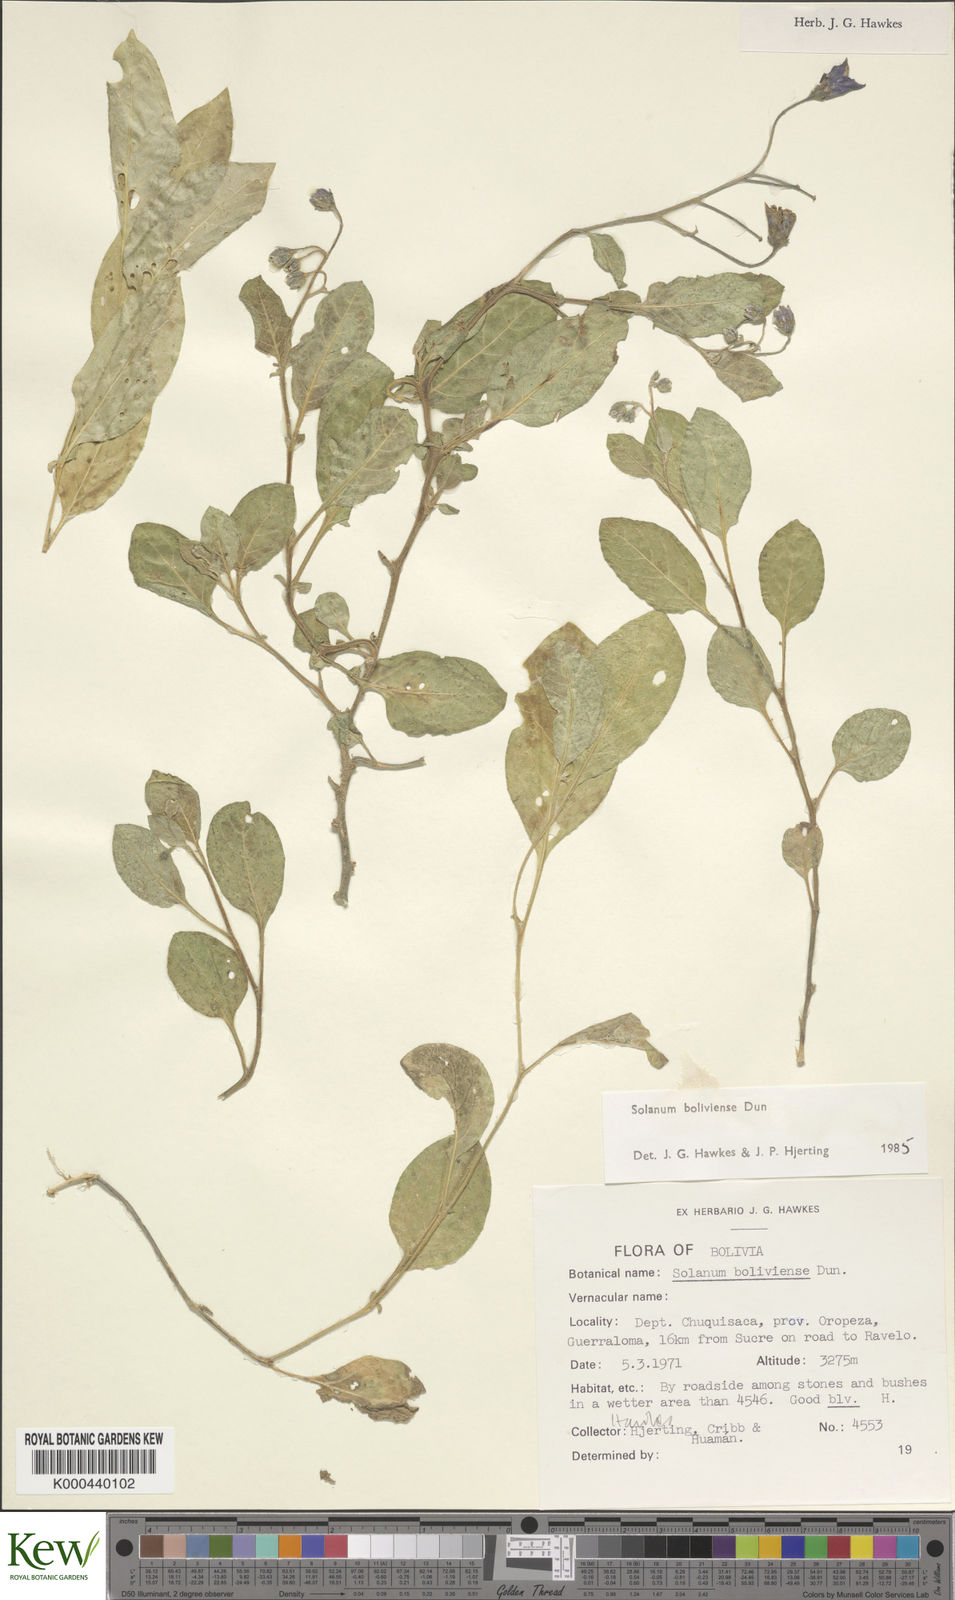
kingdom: Plantae
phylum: Tracheophyta
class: Magnoliopsida
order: Solanales
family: Solanaceae
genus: Solanum
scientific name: Solanum boliviense
